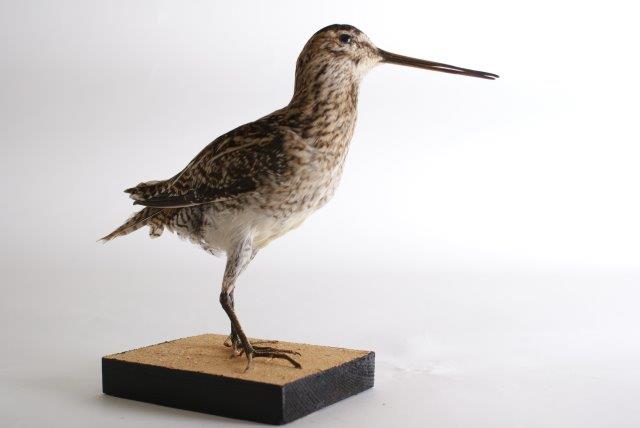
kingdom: Animalia
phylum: Chordata
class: Aves
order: Charadriiformes
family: Scolopacidae
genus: Gallinago
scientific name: Gallinago gallinago
